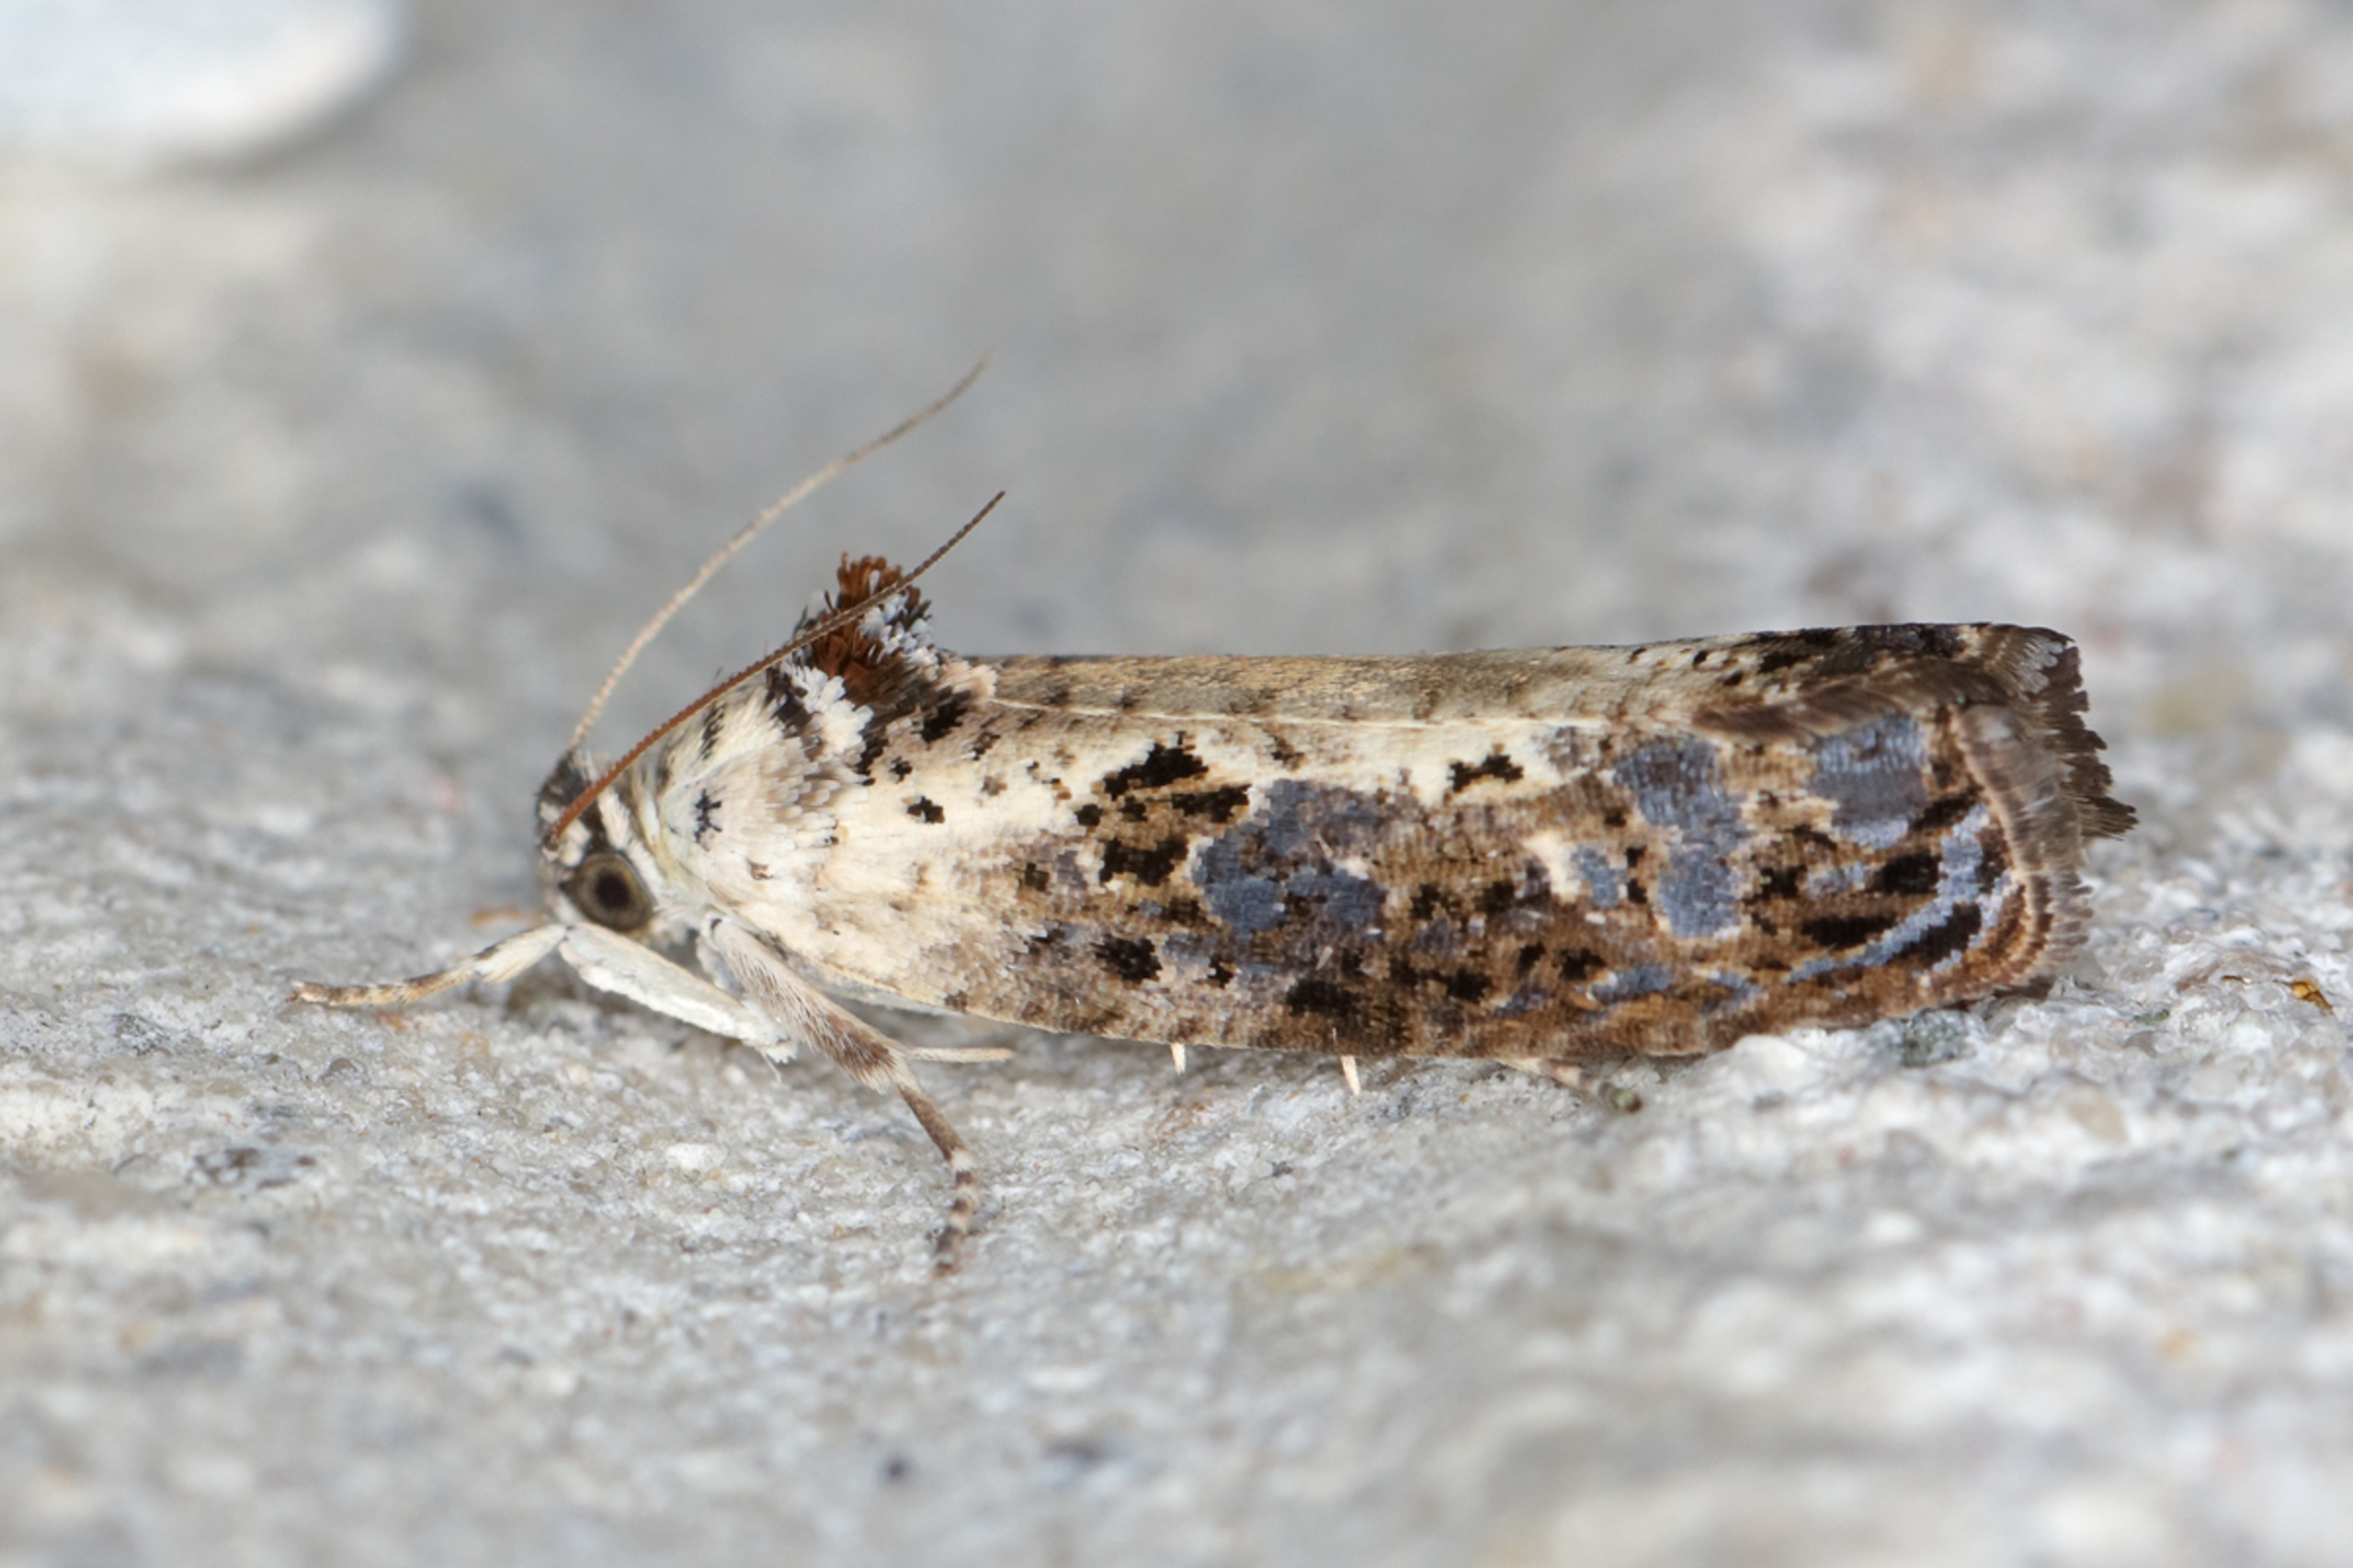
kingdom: Animalia
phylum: Arthropoda
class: Insecta
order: Lepidoptera
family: Tortricidae
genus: Hedya
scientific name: Hedya salicella
